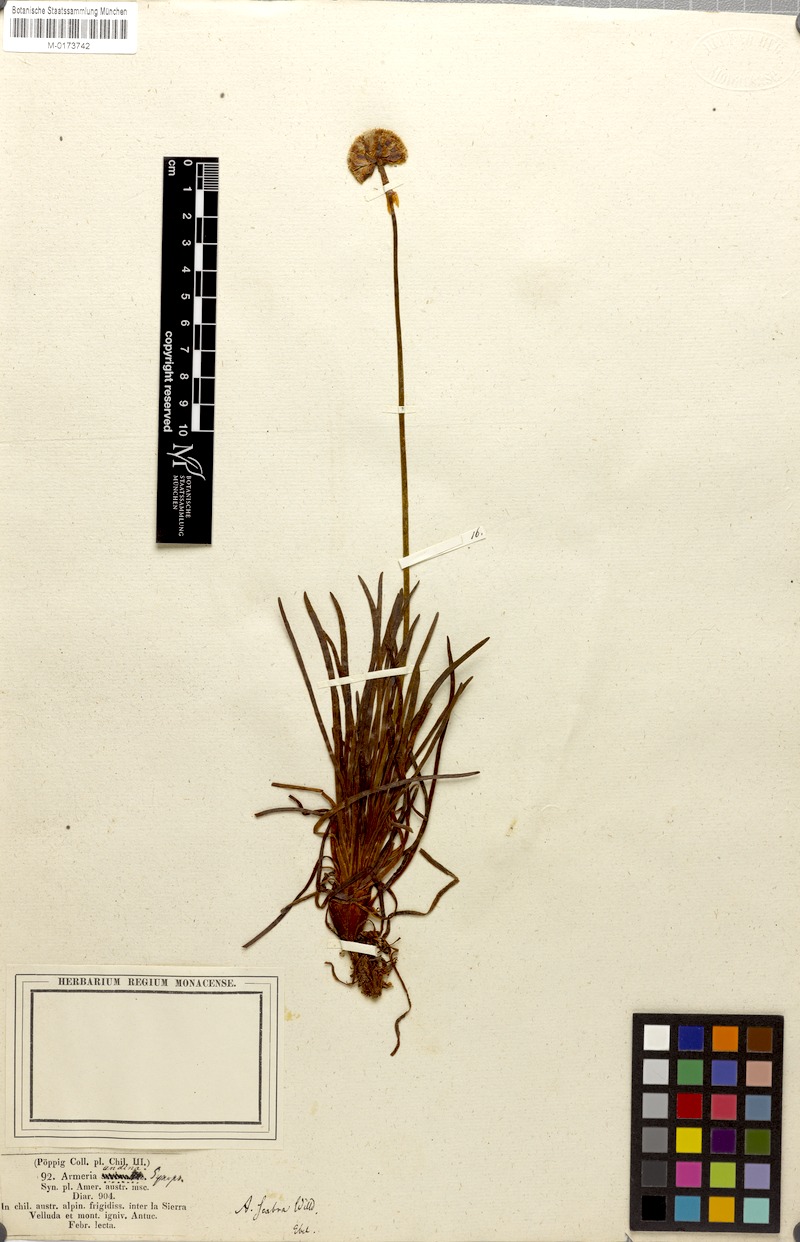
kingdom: Plantae
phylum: Tracheophyta
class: Magnoliopsida
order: Caryophyllales
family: Plumbaginaceae
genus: Armeria
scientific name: Armeria curvifolia
